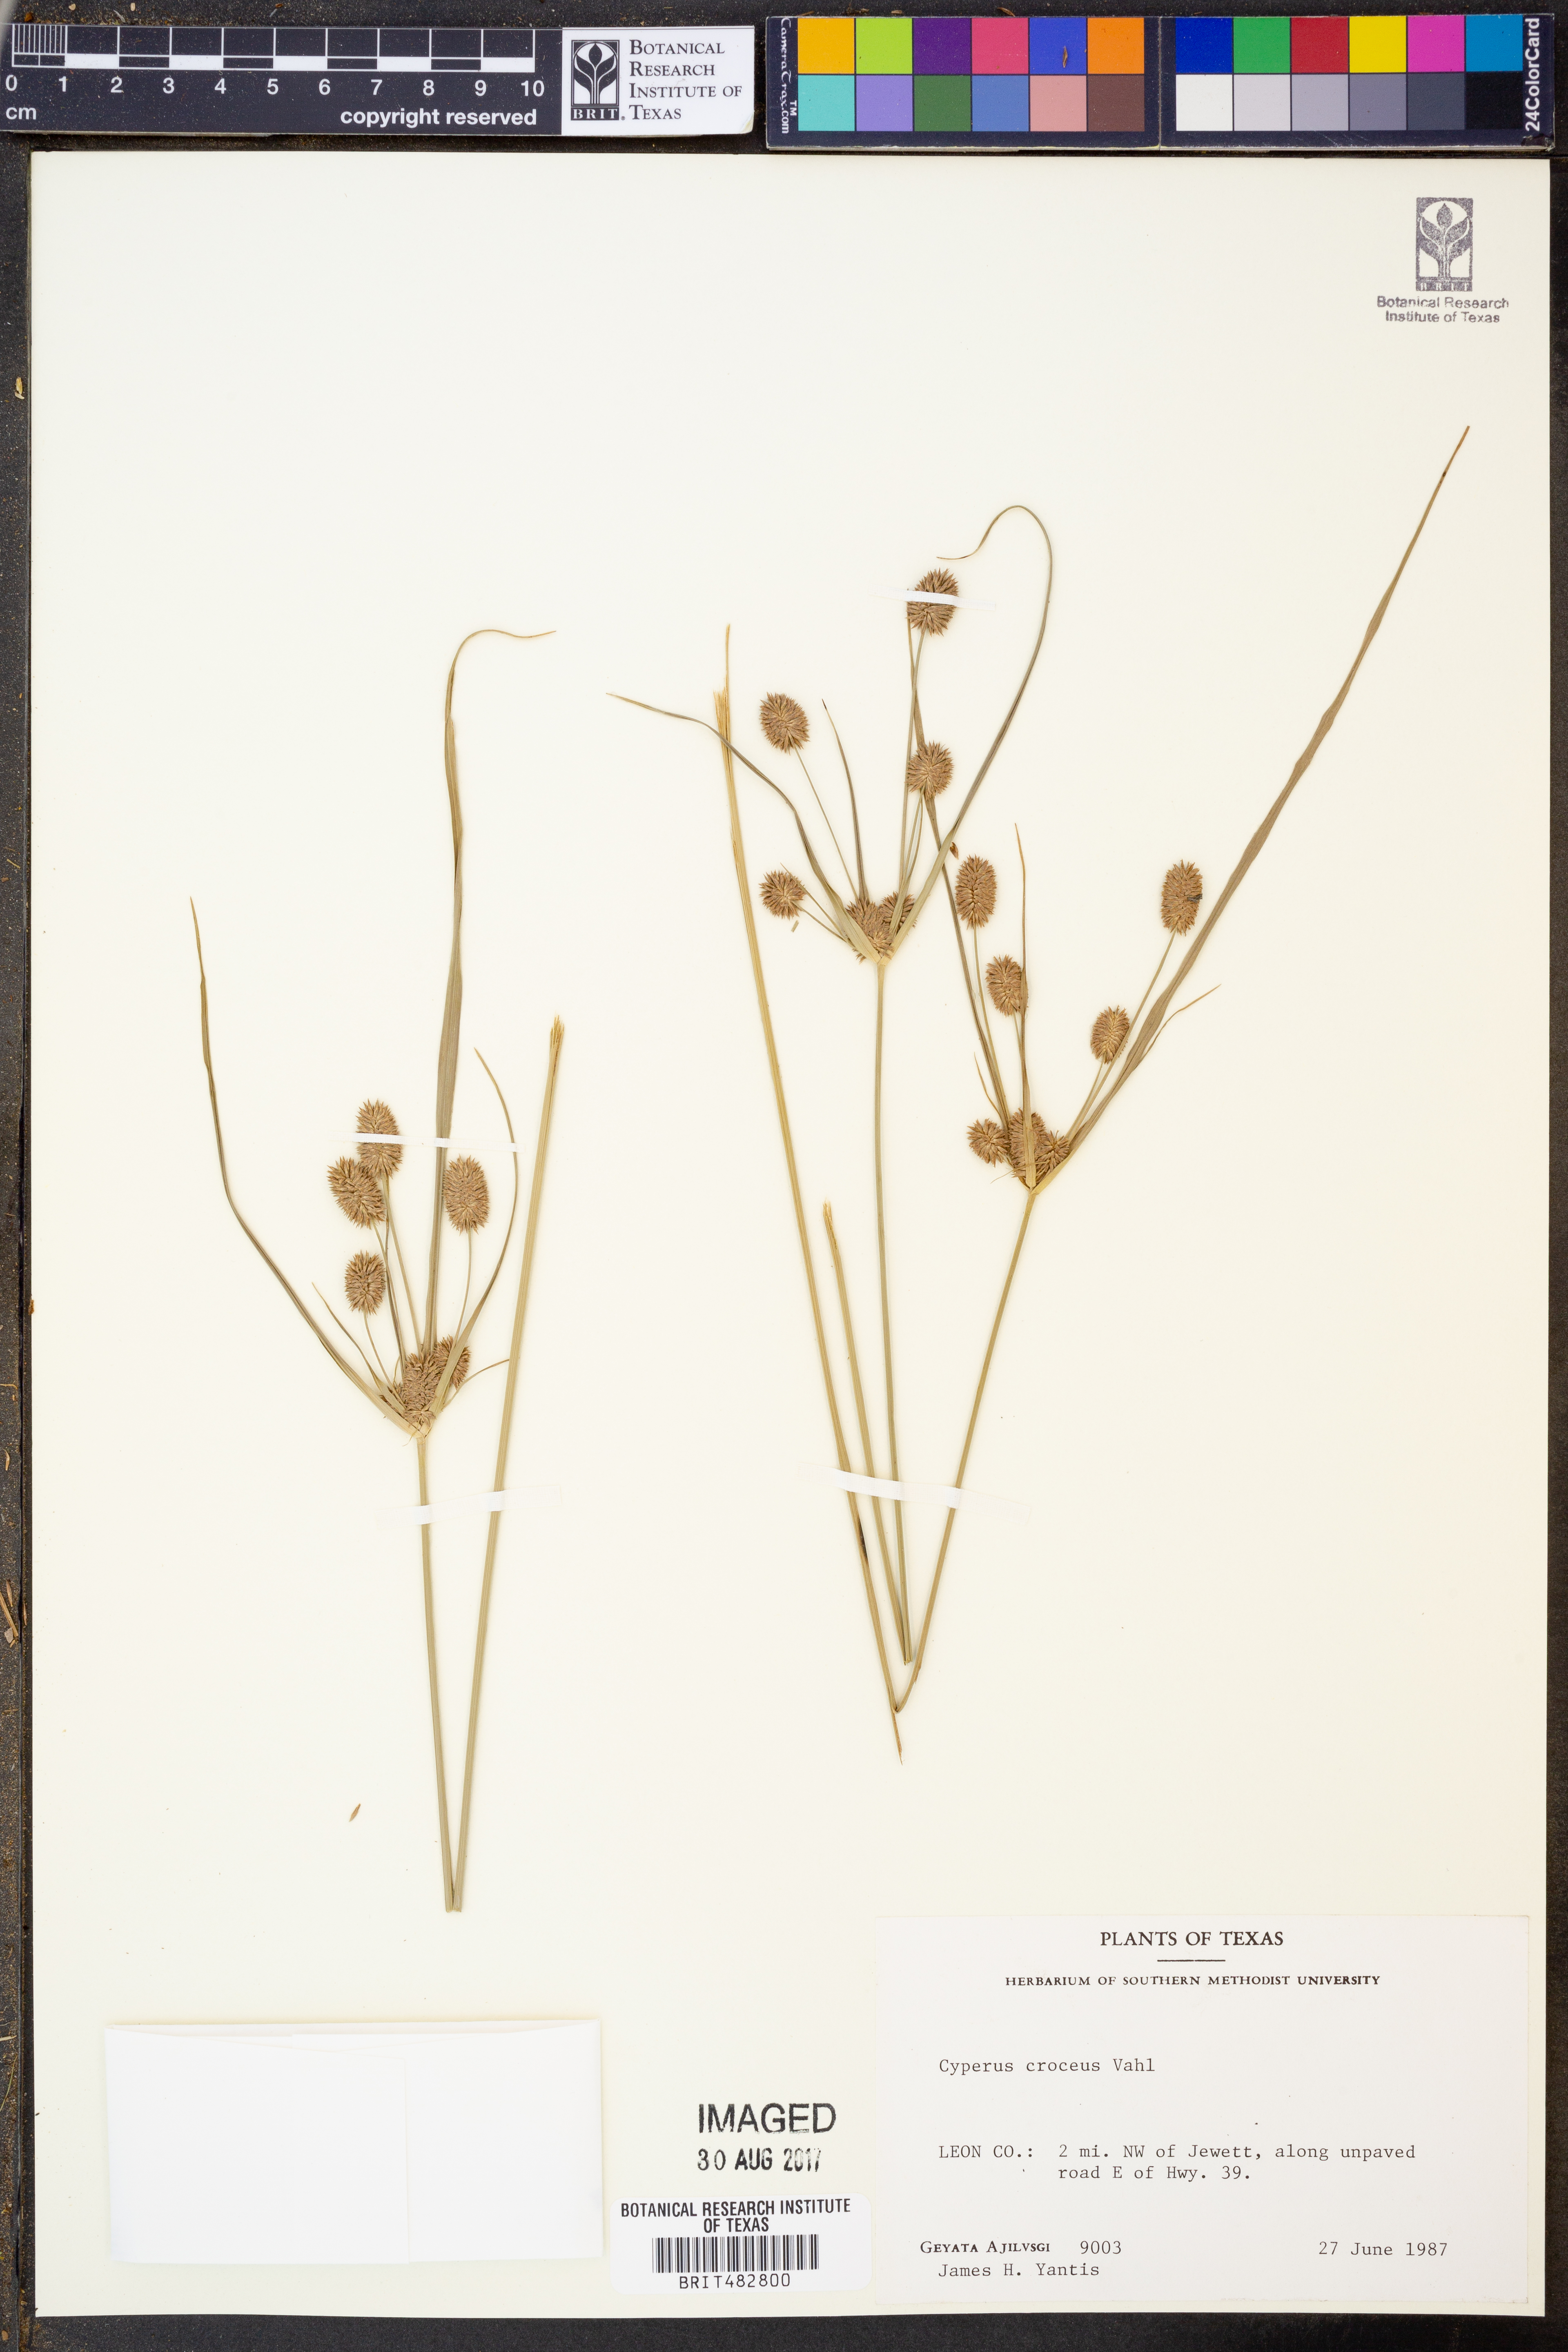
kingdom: Plantae
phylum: Tracheophyta
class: Liliopsida
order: Poales
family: Cyperaceae
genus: Cyperus
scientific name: Cyperus croceus
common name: Baldwin's flatsedge
